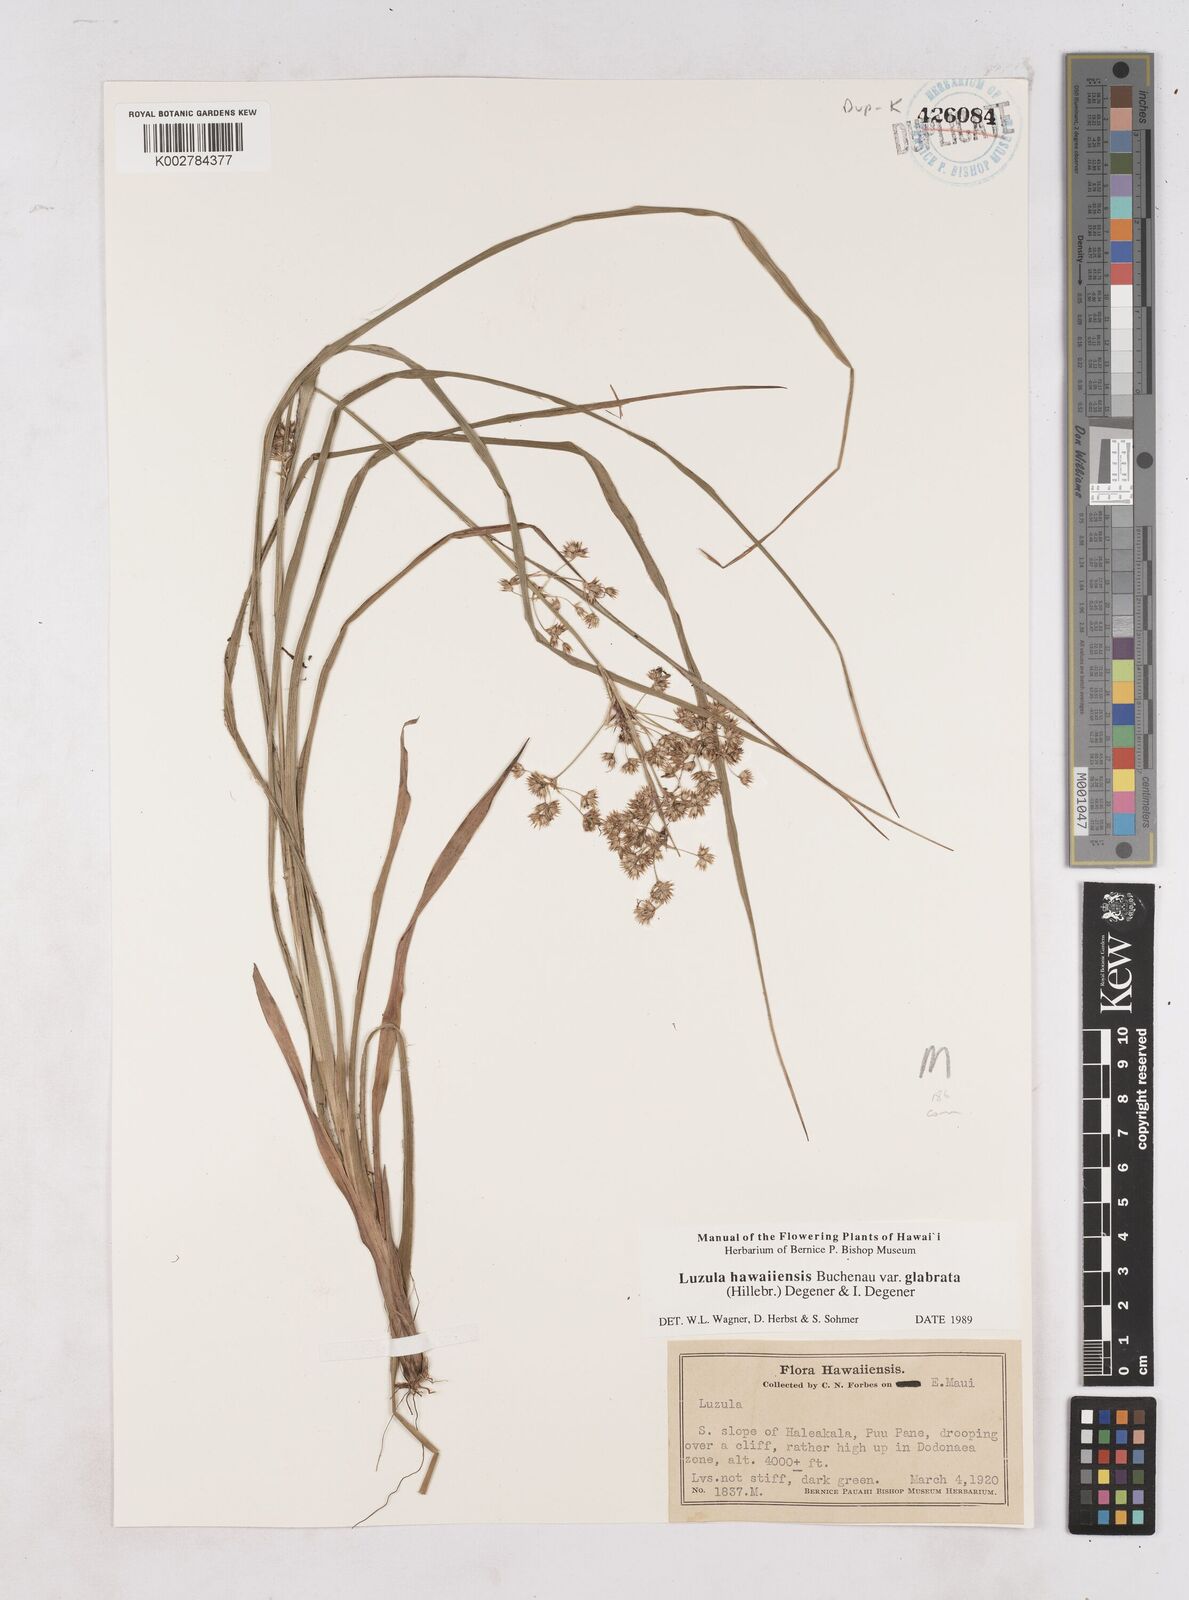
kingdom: Plantae
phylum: Tracheophyta
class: Liliopsida
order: Poales
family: Juncaceae
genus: Luzula
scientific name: Luzula campestris
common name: Field wood-rush
